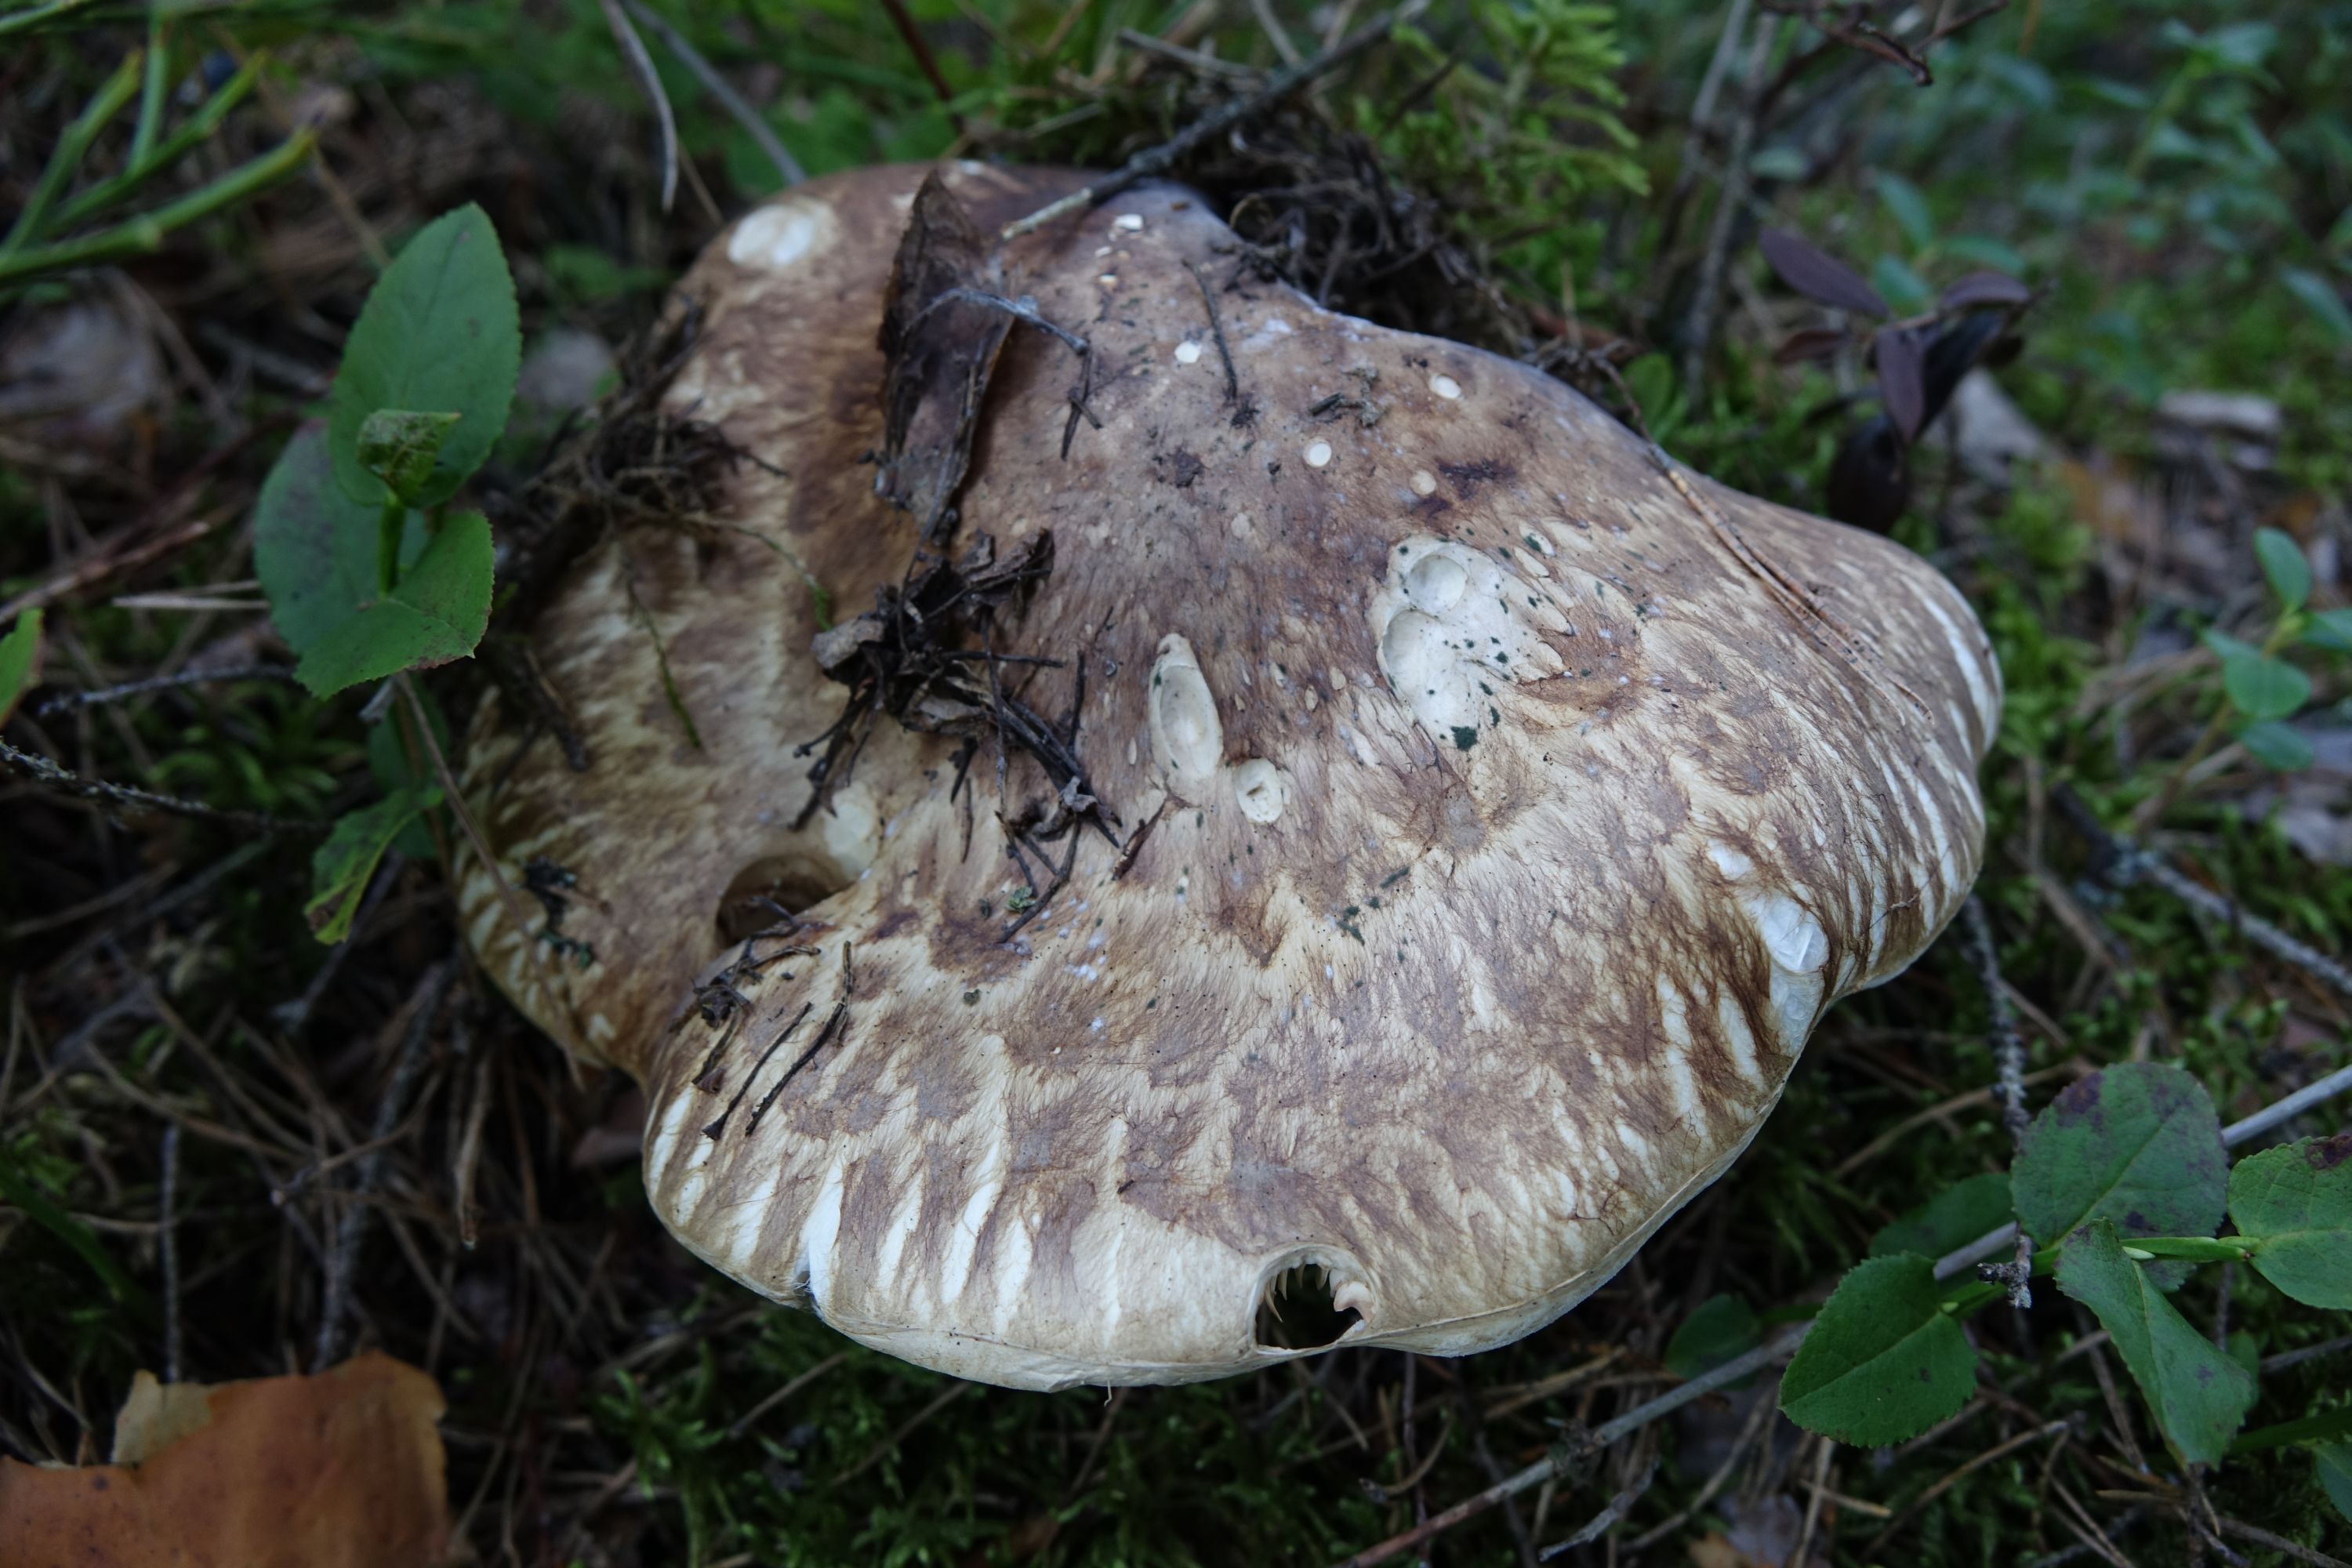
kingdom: Fungi
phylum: Basidiomycota
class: Agaricomycetes
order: Agaricales
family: Tricholomataceae
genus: Tricholoma
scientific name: Tricholoma matsutake
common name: Matsutake
